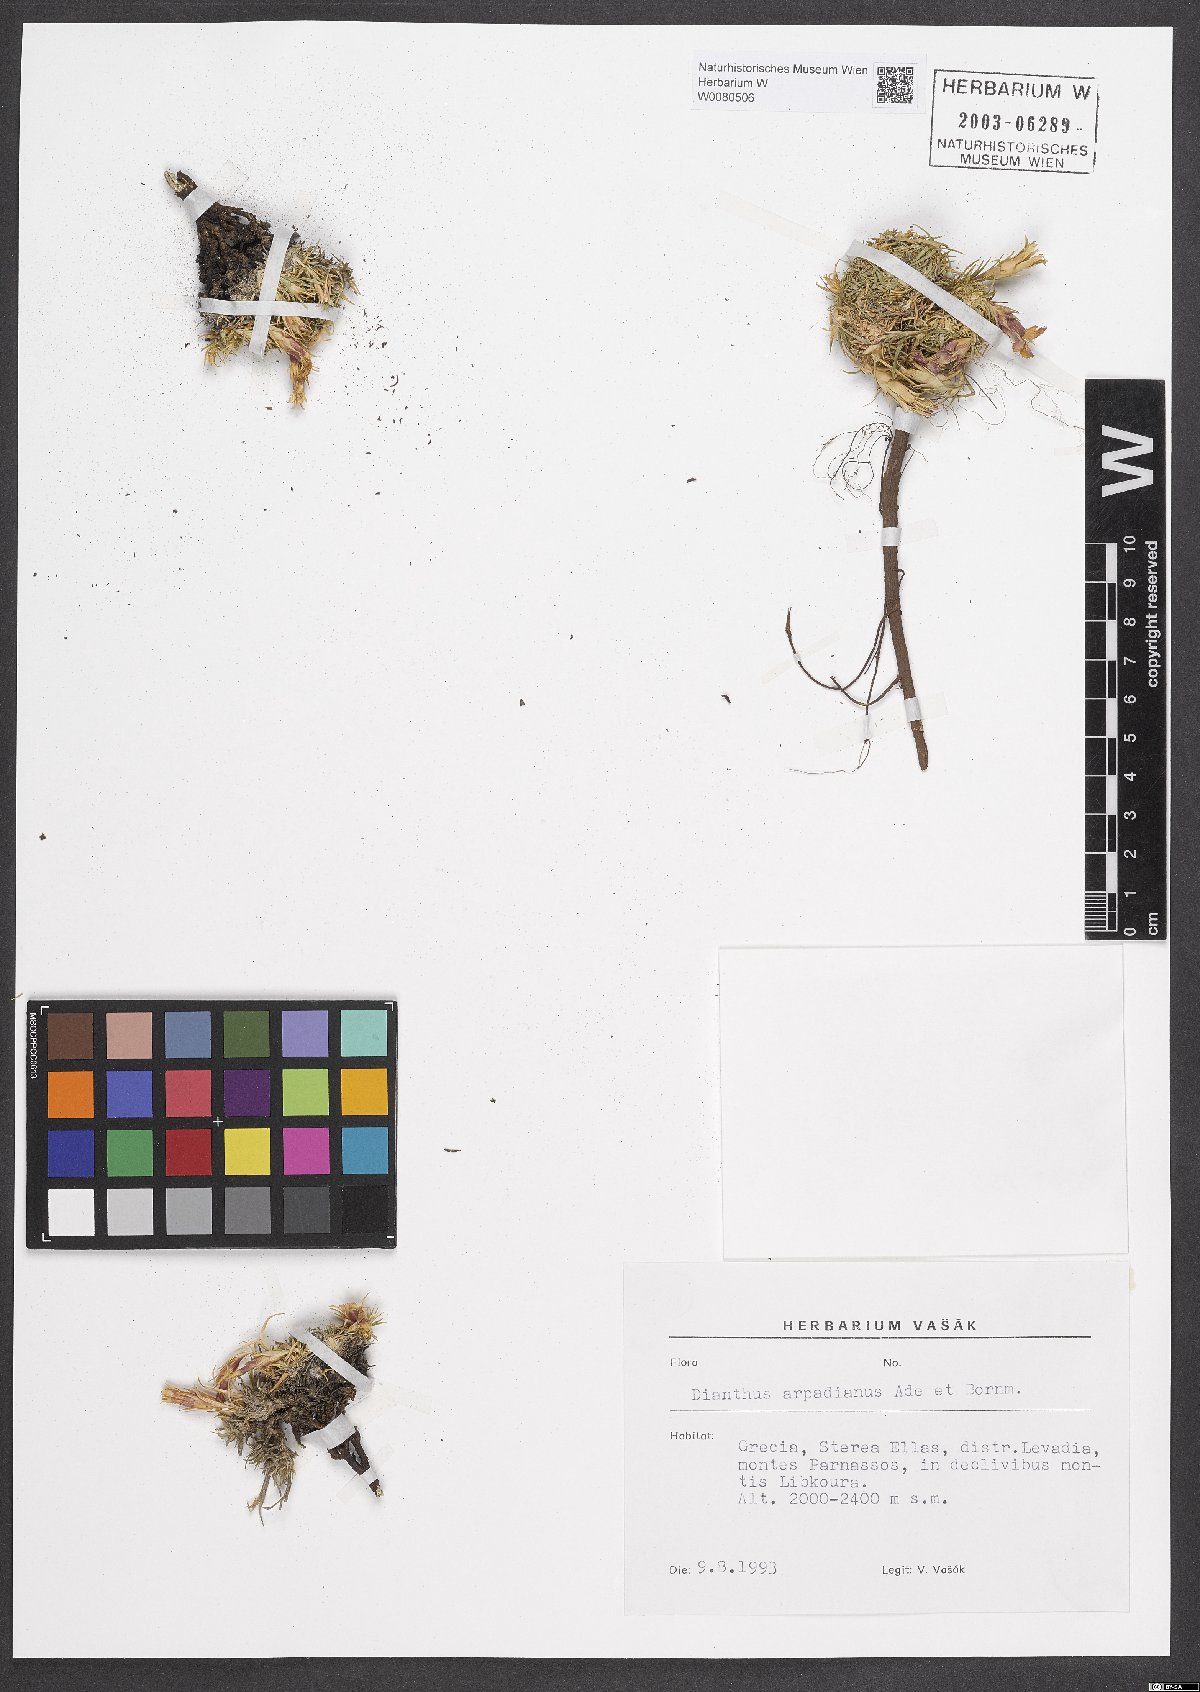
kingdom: Plantae
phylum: Tracheophyta
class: Magnoliopsida
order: Caryophyllales
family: Caryophyllaceae
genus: Dianthus
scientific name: Dianthus arpadianus
